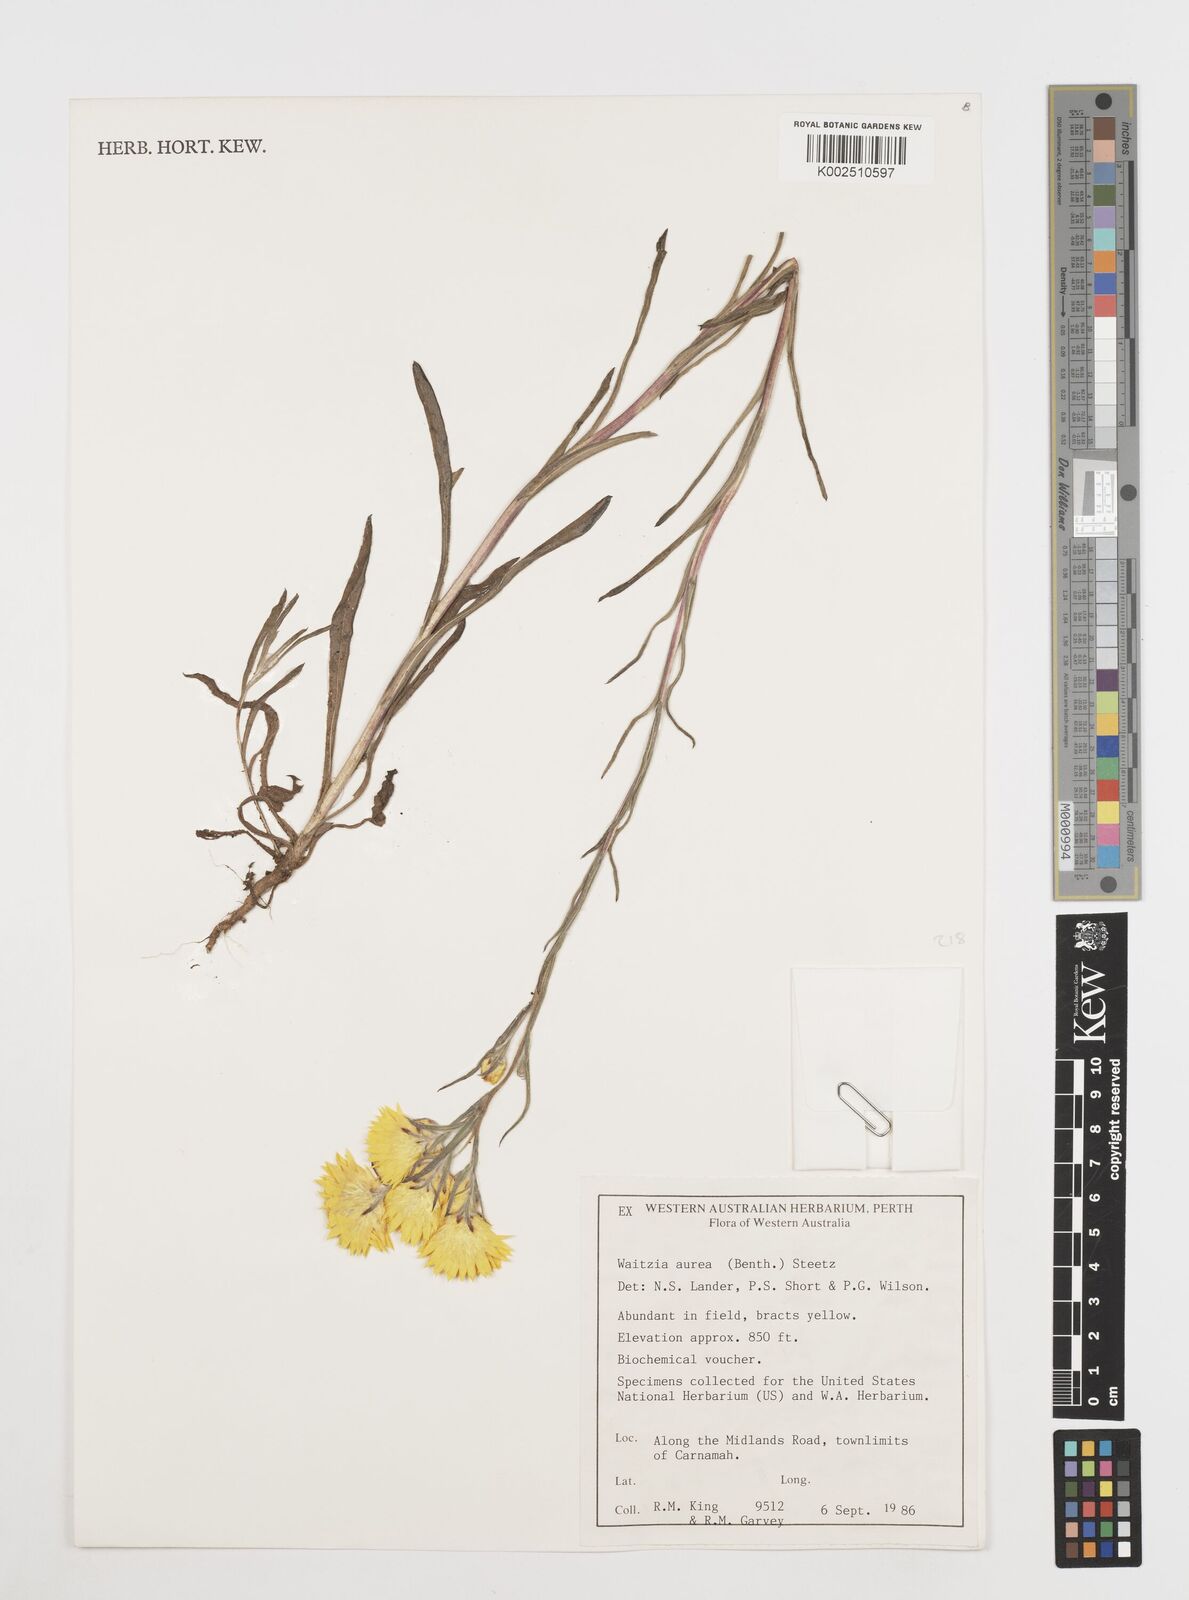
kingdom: Plantae
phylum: Tracheophyta
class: Magnoliopsida
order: Asterales
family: Asteraceae
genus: Waitzia
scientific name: Waitzia nitida
